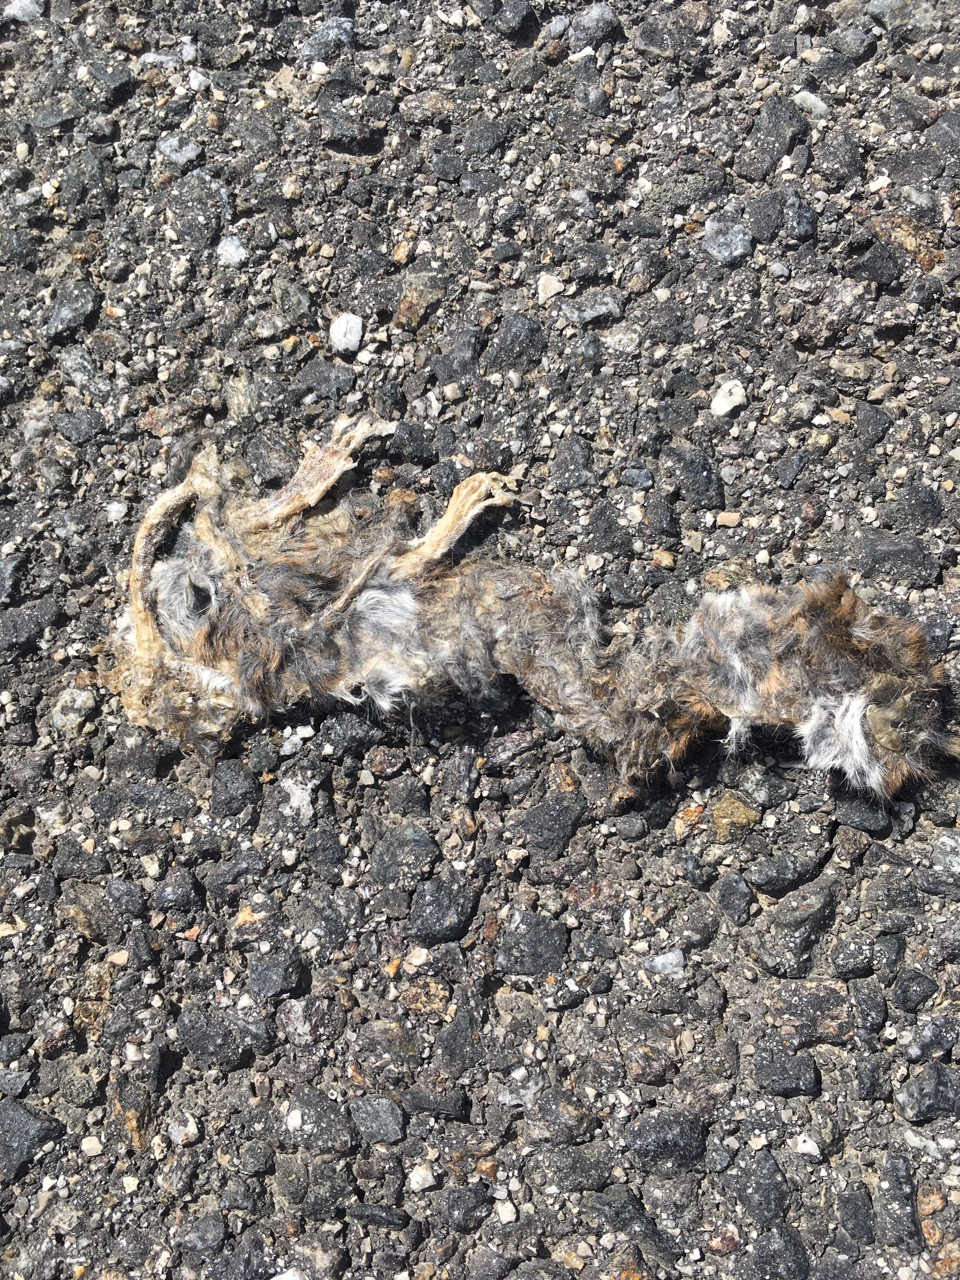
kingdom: Animalia
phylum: Chordata
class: Mammalia
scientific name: Mammalia
